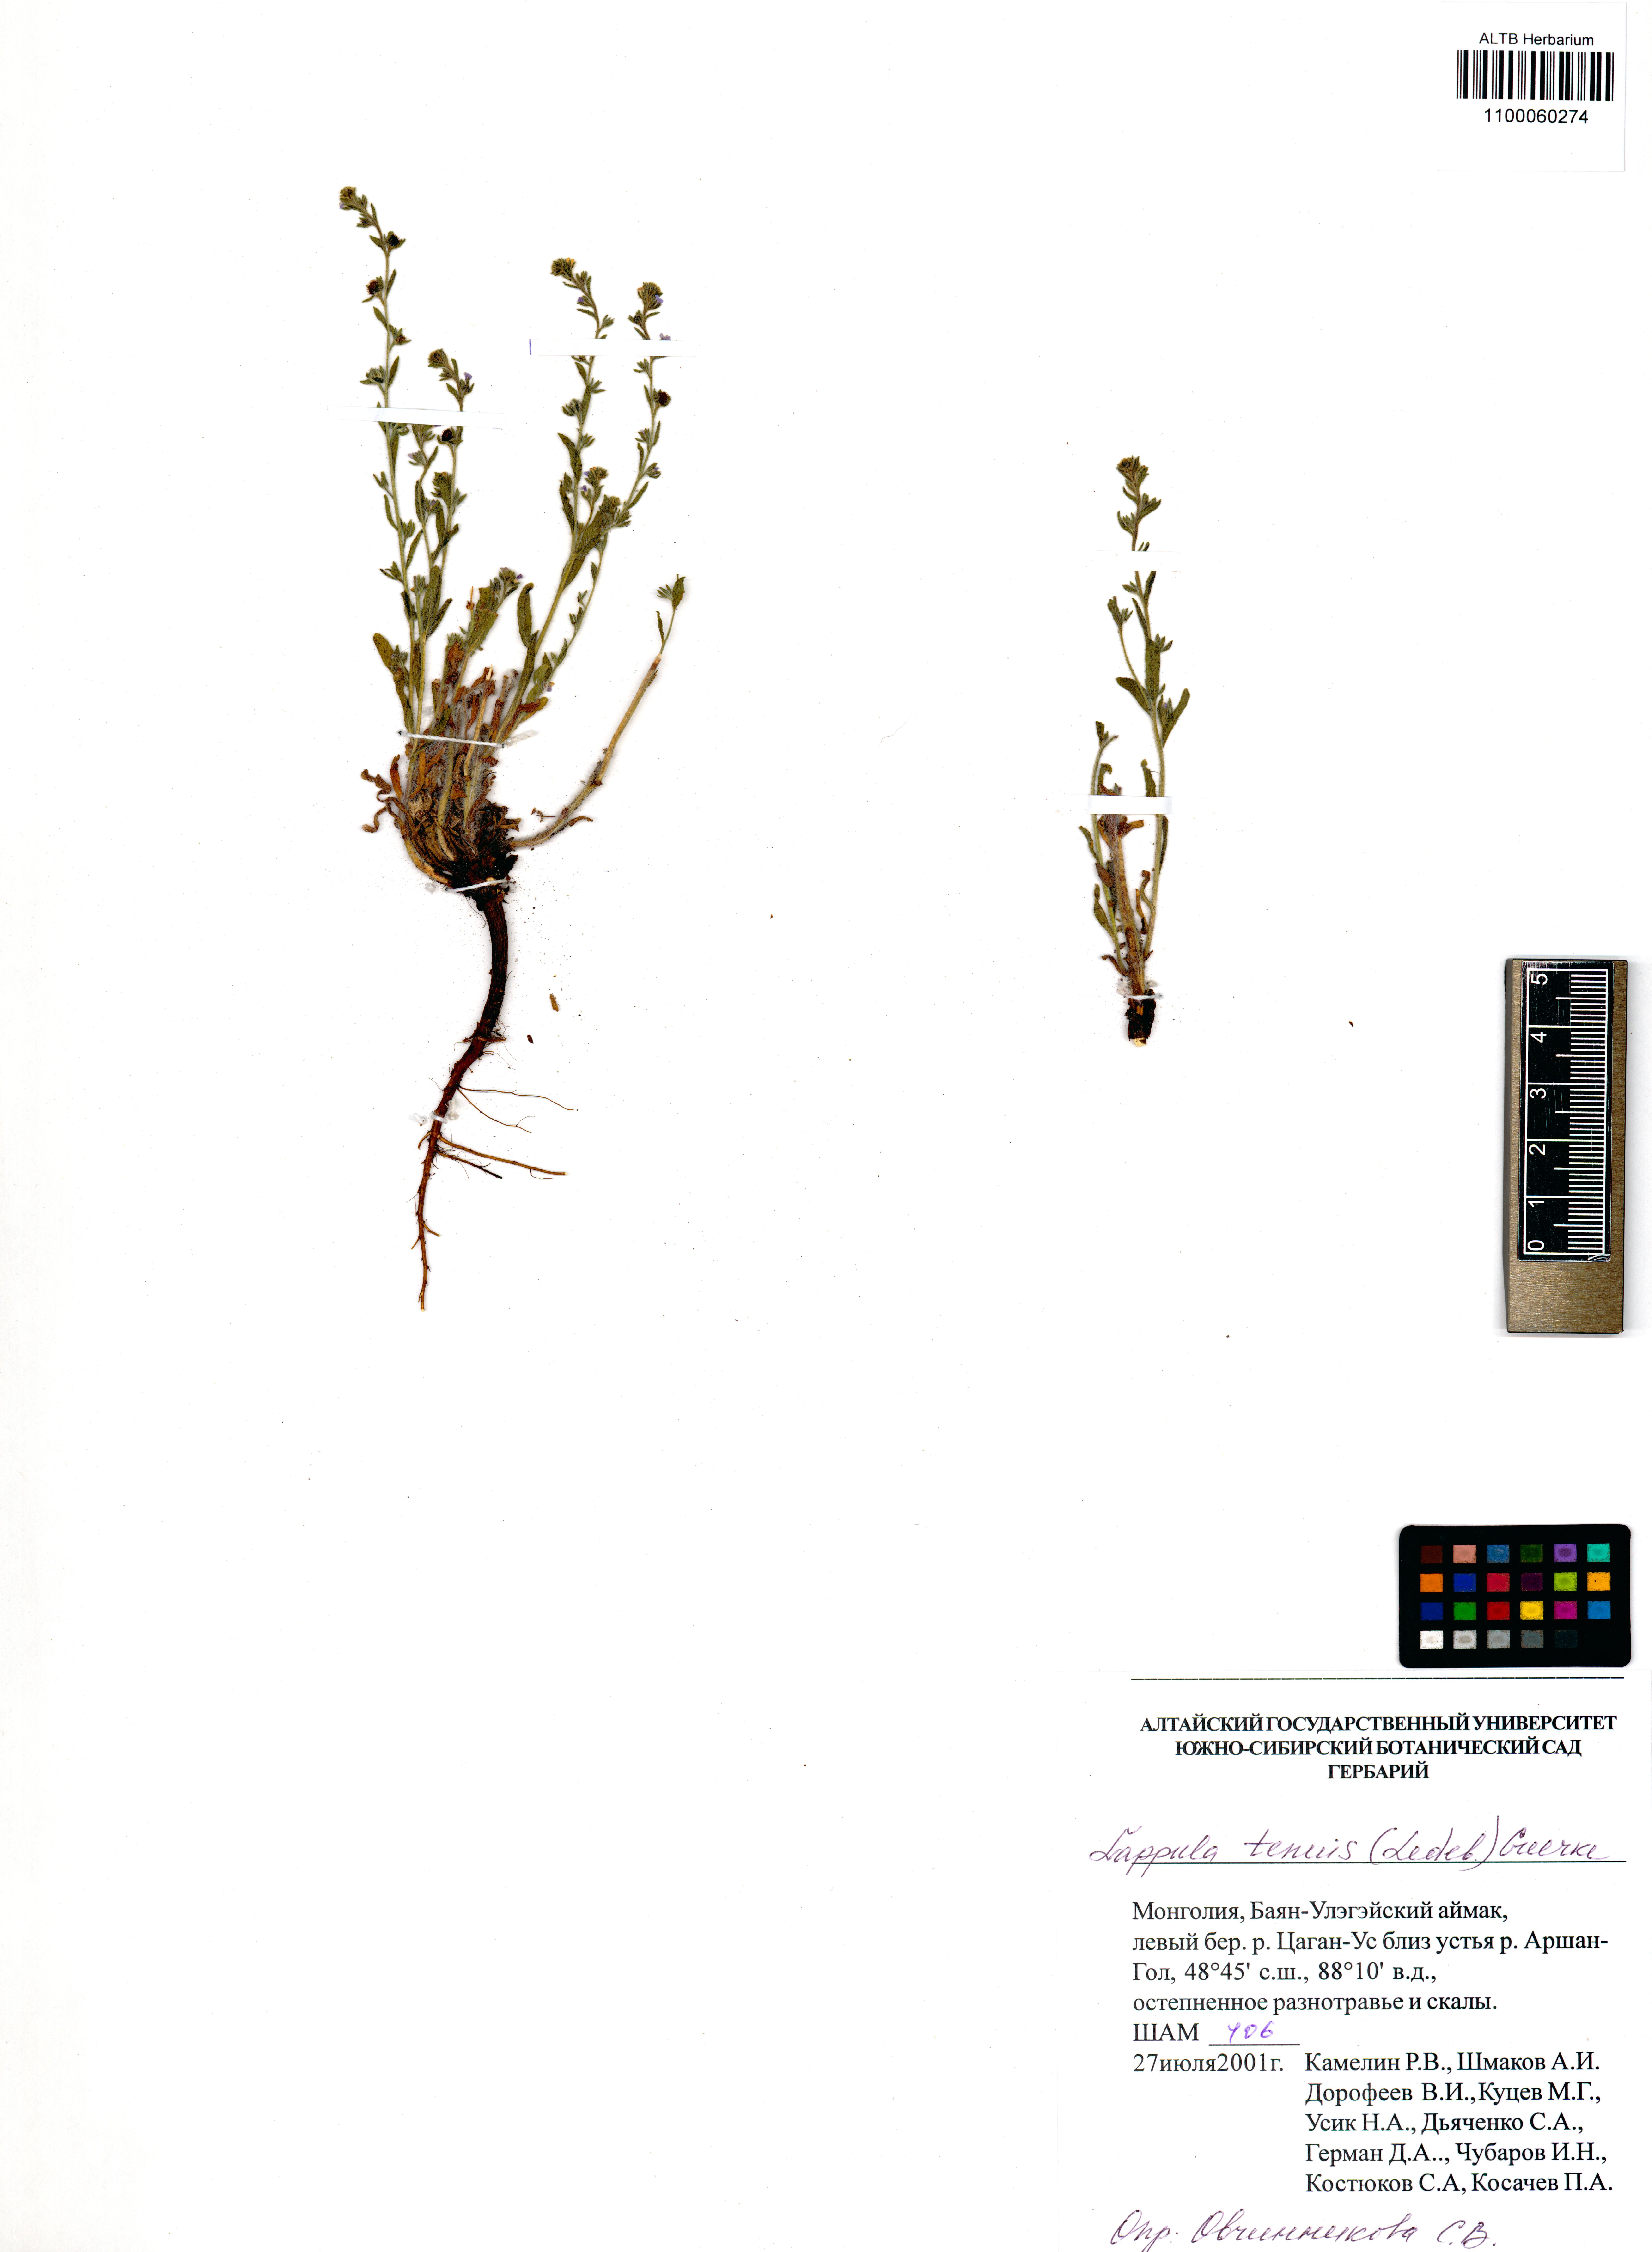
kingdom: Plantae
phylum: Tracheophyta
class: Magnoliopsida
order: Boraginales
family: Boraginaceae
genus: Lappula
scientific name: Lappula tenuis
